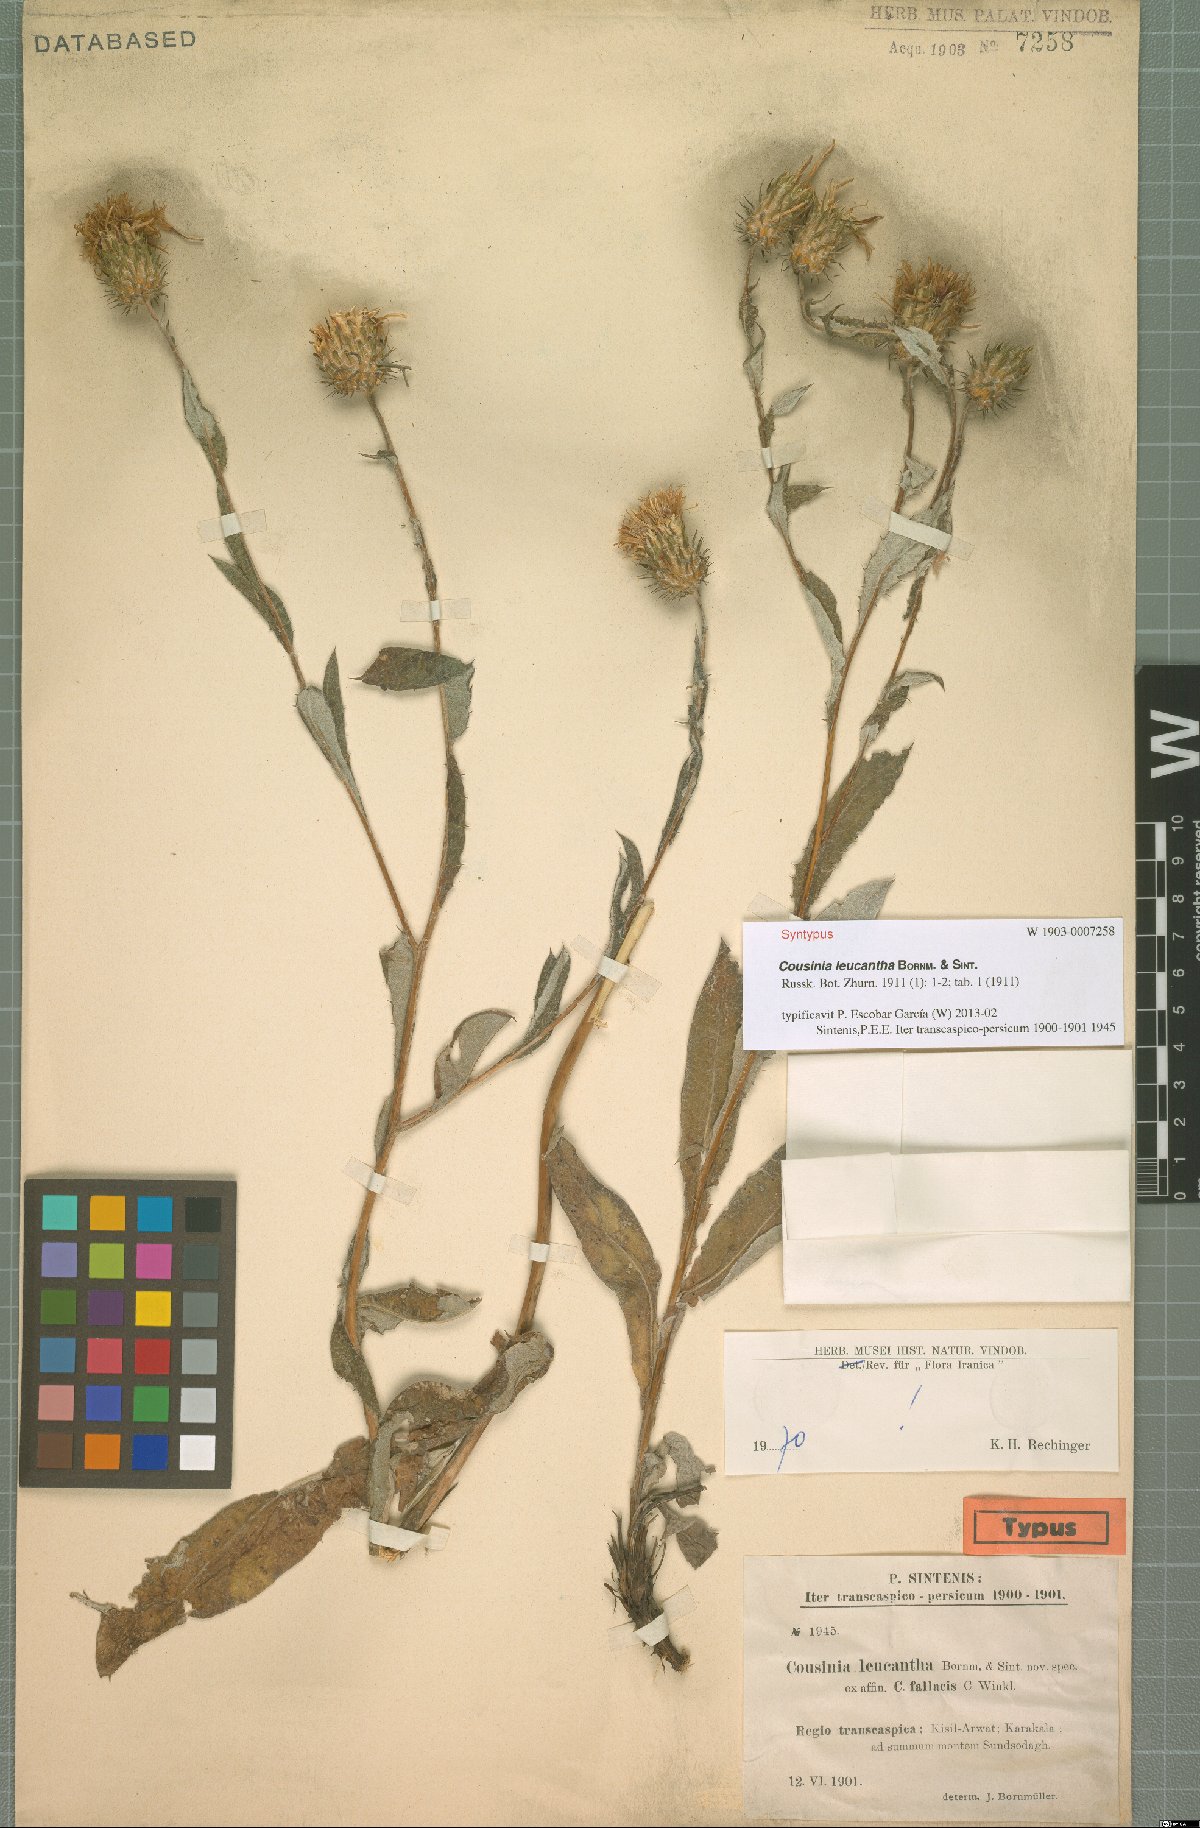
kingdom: Plantae
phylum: Tracheophyta
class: Magnoliopsida
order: Asterales
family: Asteraceae
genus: Cousinia
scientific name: Cousinia leucantha
